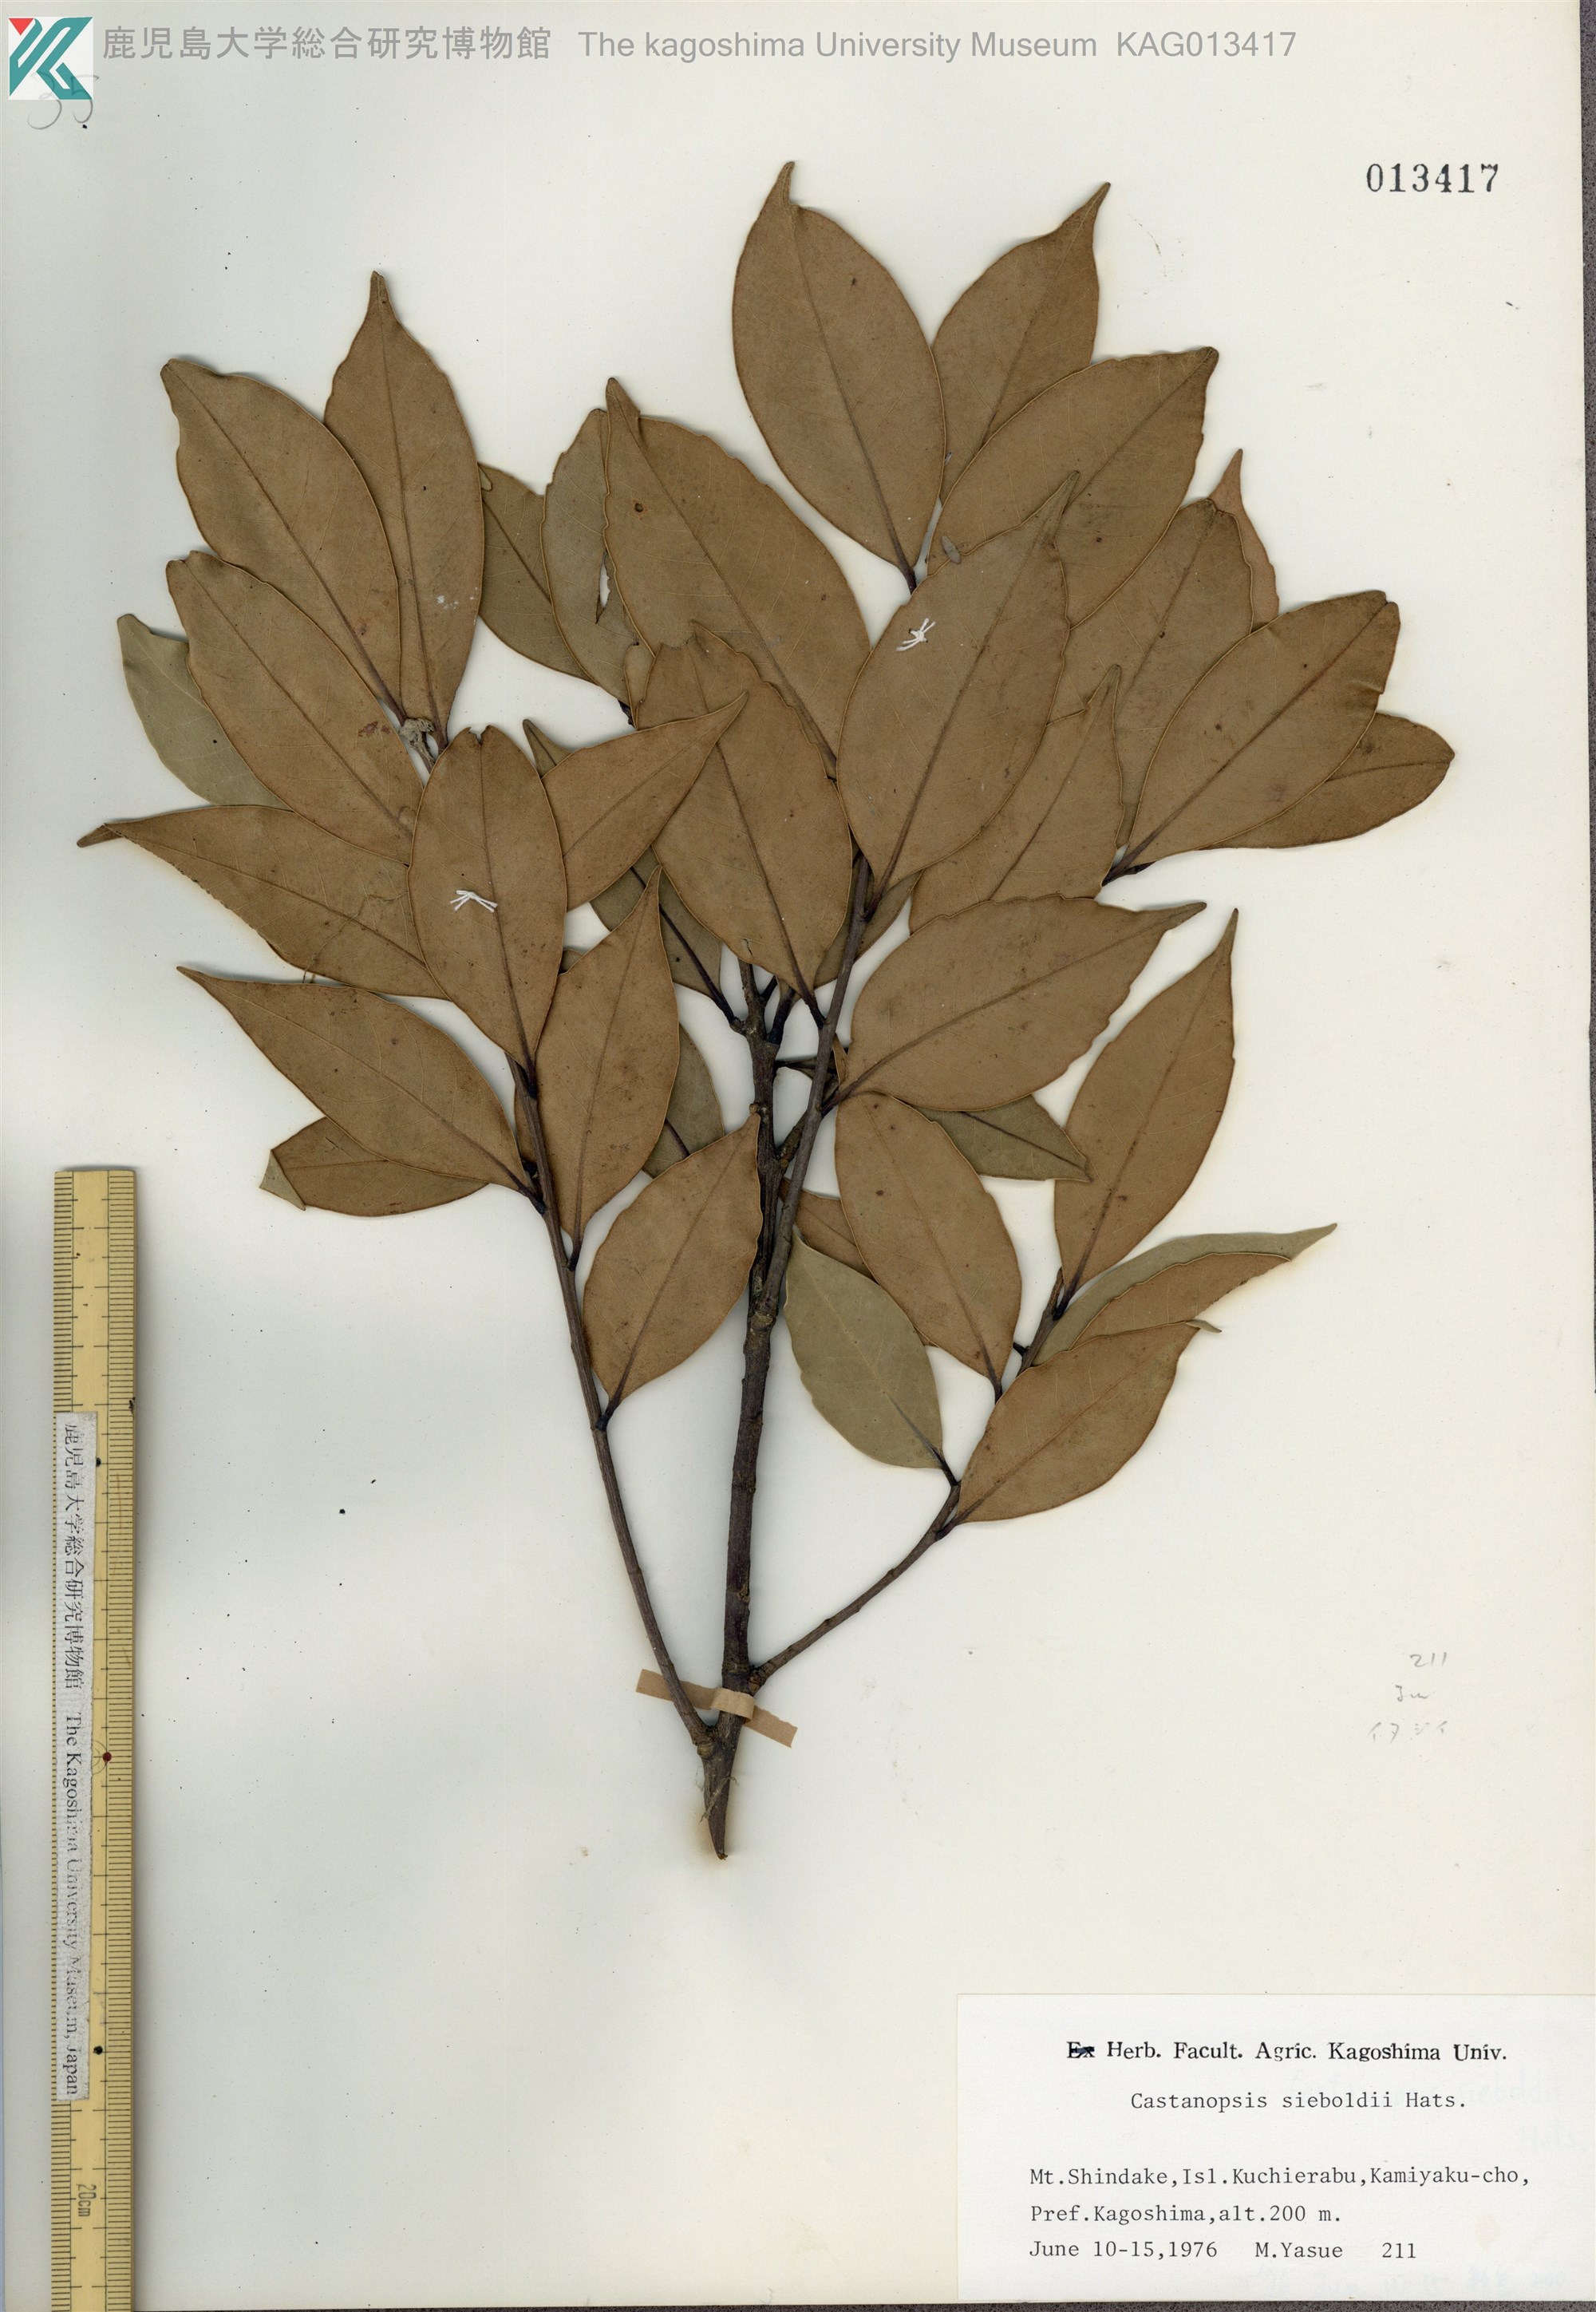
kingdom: Plantae
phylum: Tracheophyta
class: Magnoliopsida
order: Fagales
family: Fagaceae
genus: Castanopsis
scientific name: Castanopsis sieboldii
